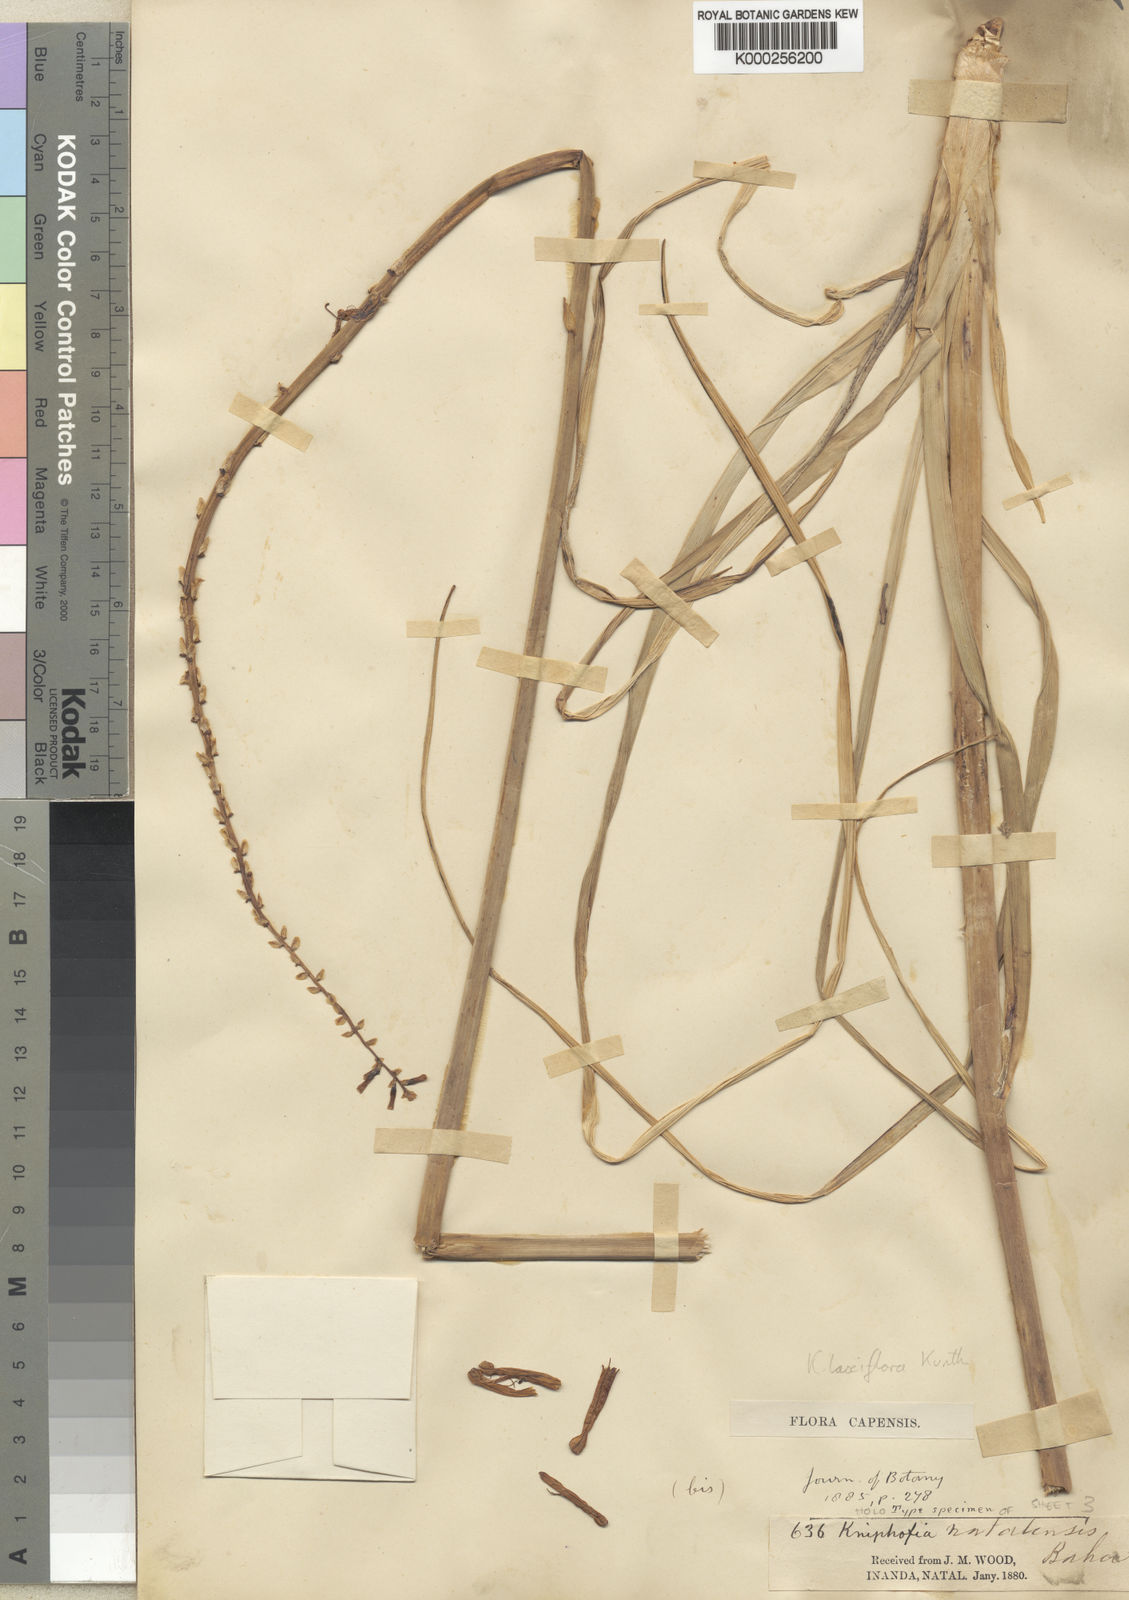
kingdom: Plantae
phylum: Tracheophyta
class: Liliopsida
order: Asparagales
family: Asphodelaceae
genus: Kniphofia
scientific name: Kniphofia laxiflora
